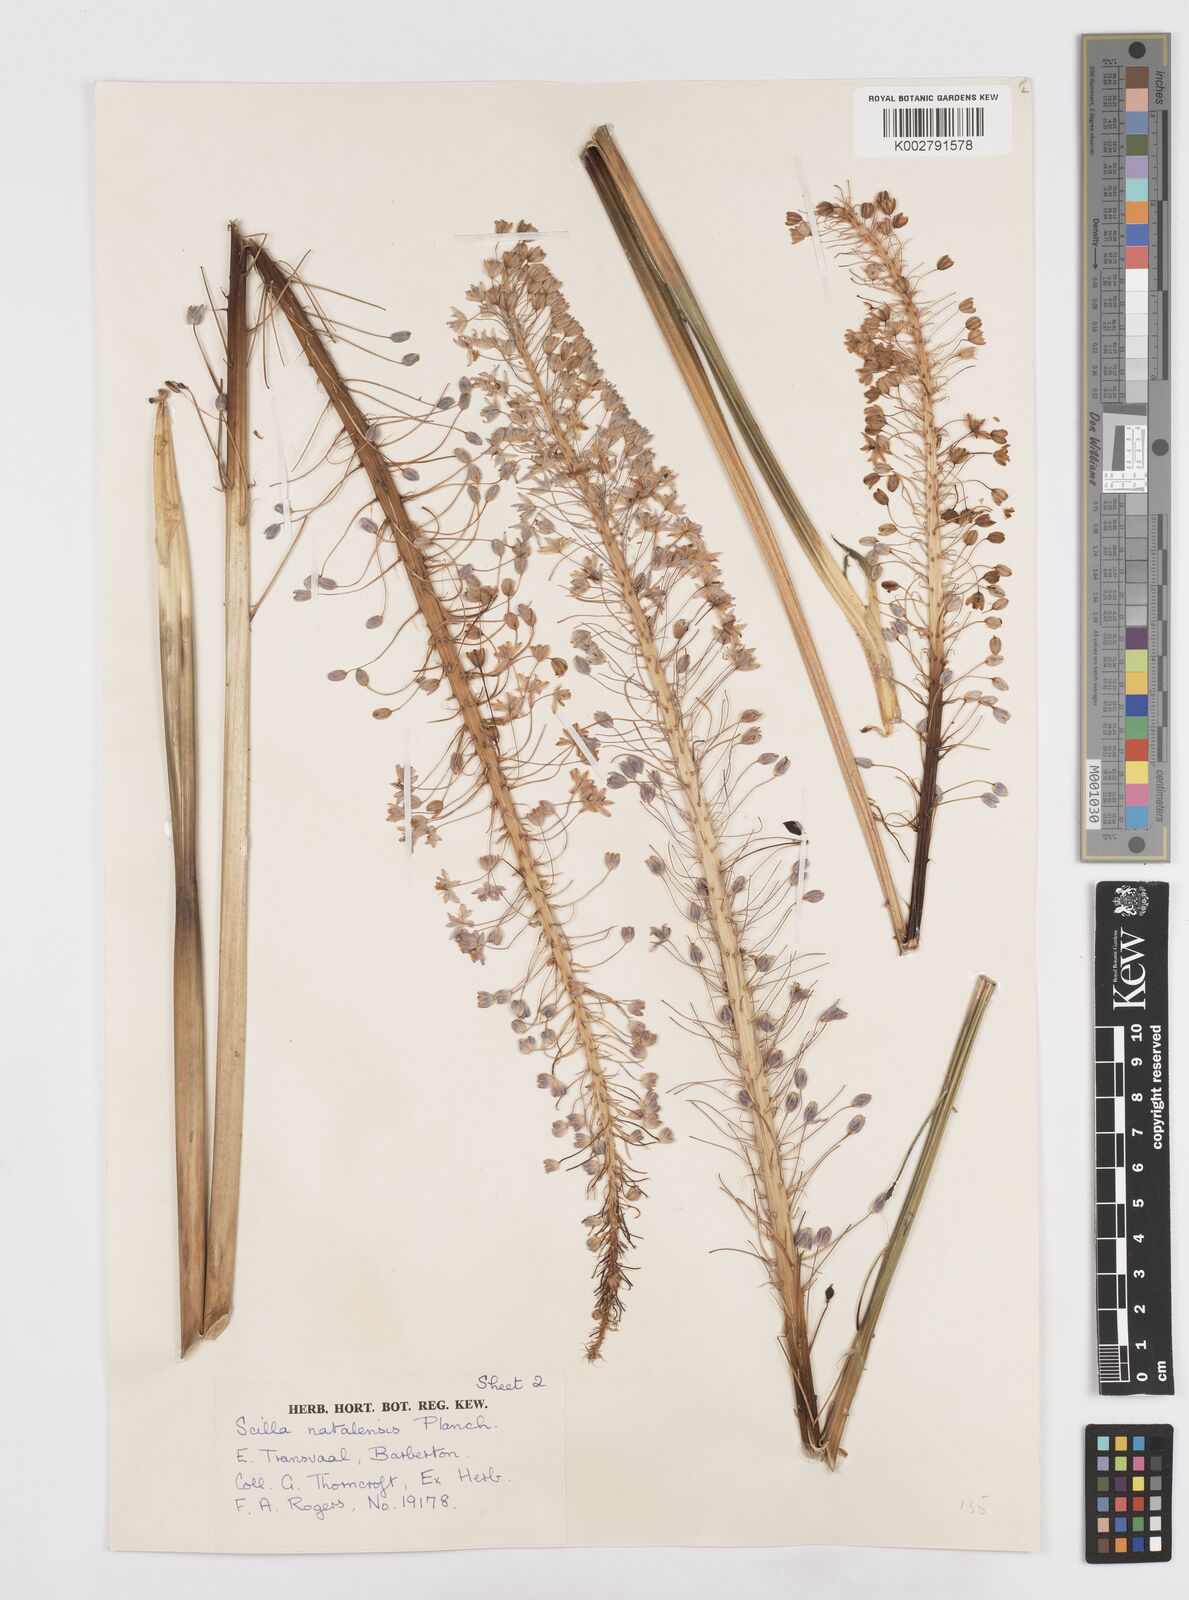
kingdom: Plantae
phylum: Tracheophyta
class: Liliopsida
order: Asparagales
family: Asparagaceae
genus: Merwilla
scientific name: Merwilla plumbea
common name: Blue-squill
